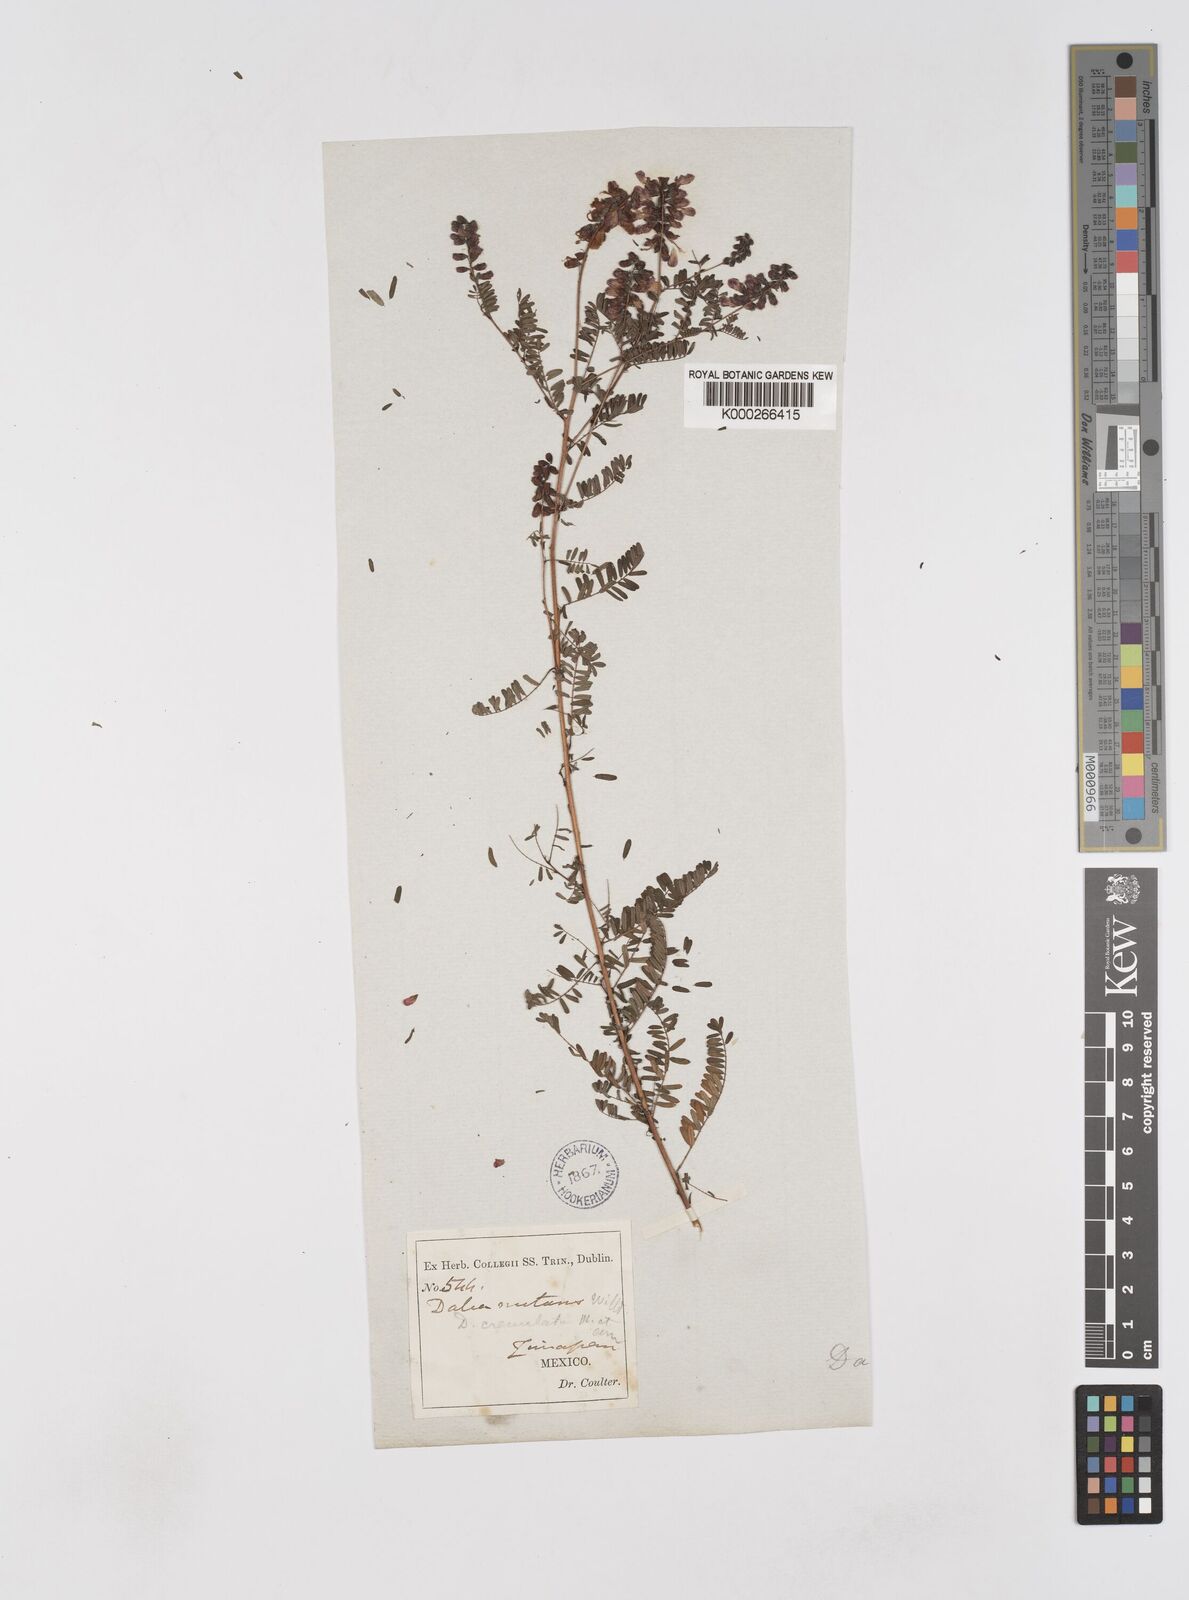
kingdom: Plantae
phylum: Tracheophyta
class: Magnoliopsida
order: Fabales
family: Fabaceae
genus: Marina
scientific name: Marina nutans
